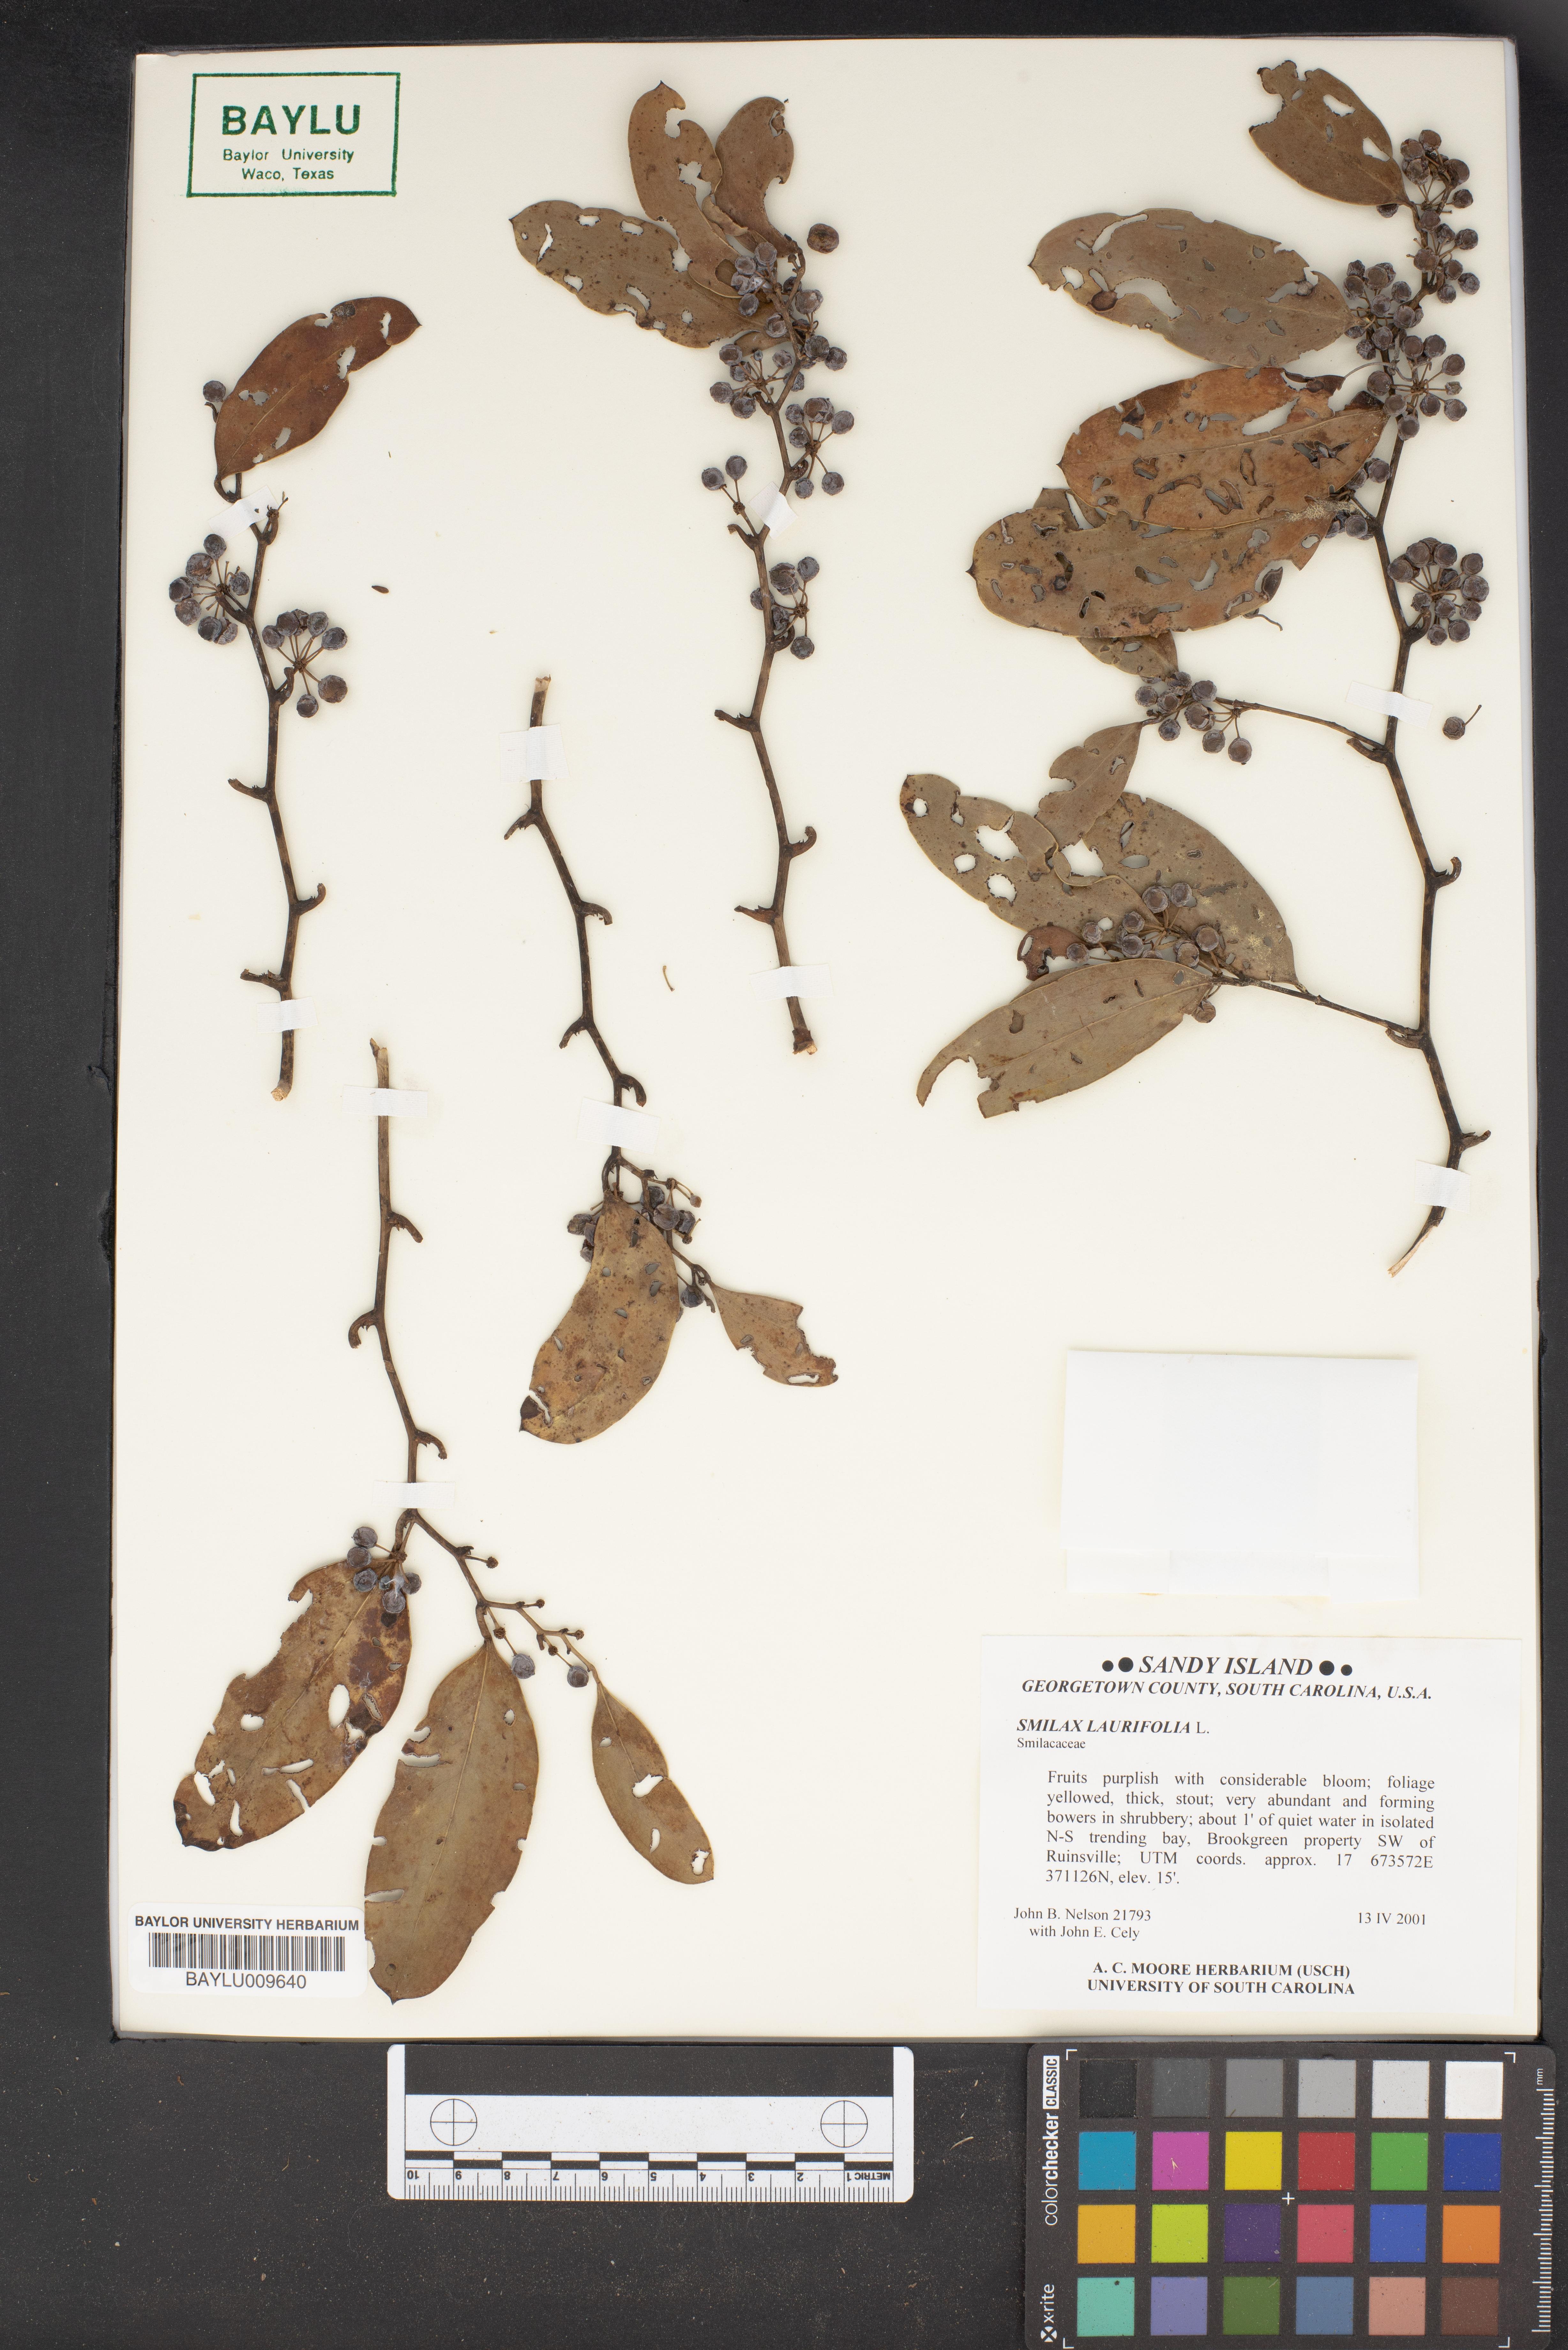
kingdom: Plantae
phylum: Tracheophyta
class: Liliopsida
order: Liliales
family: Smilacaceae
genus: Smilax
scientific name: Smilax laurifolia
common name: Bamboovine
